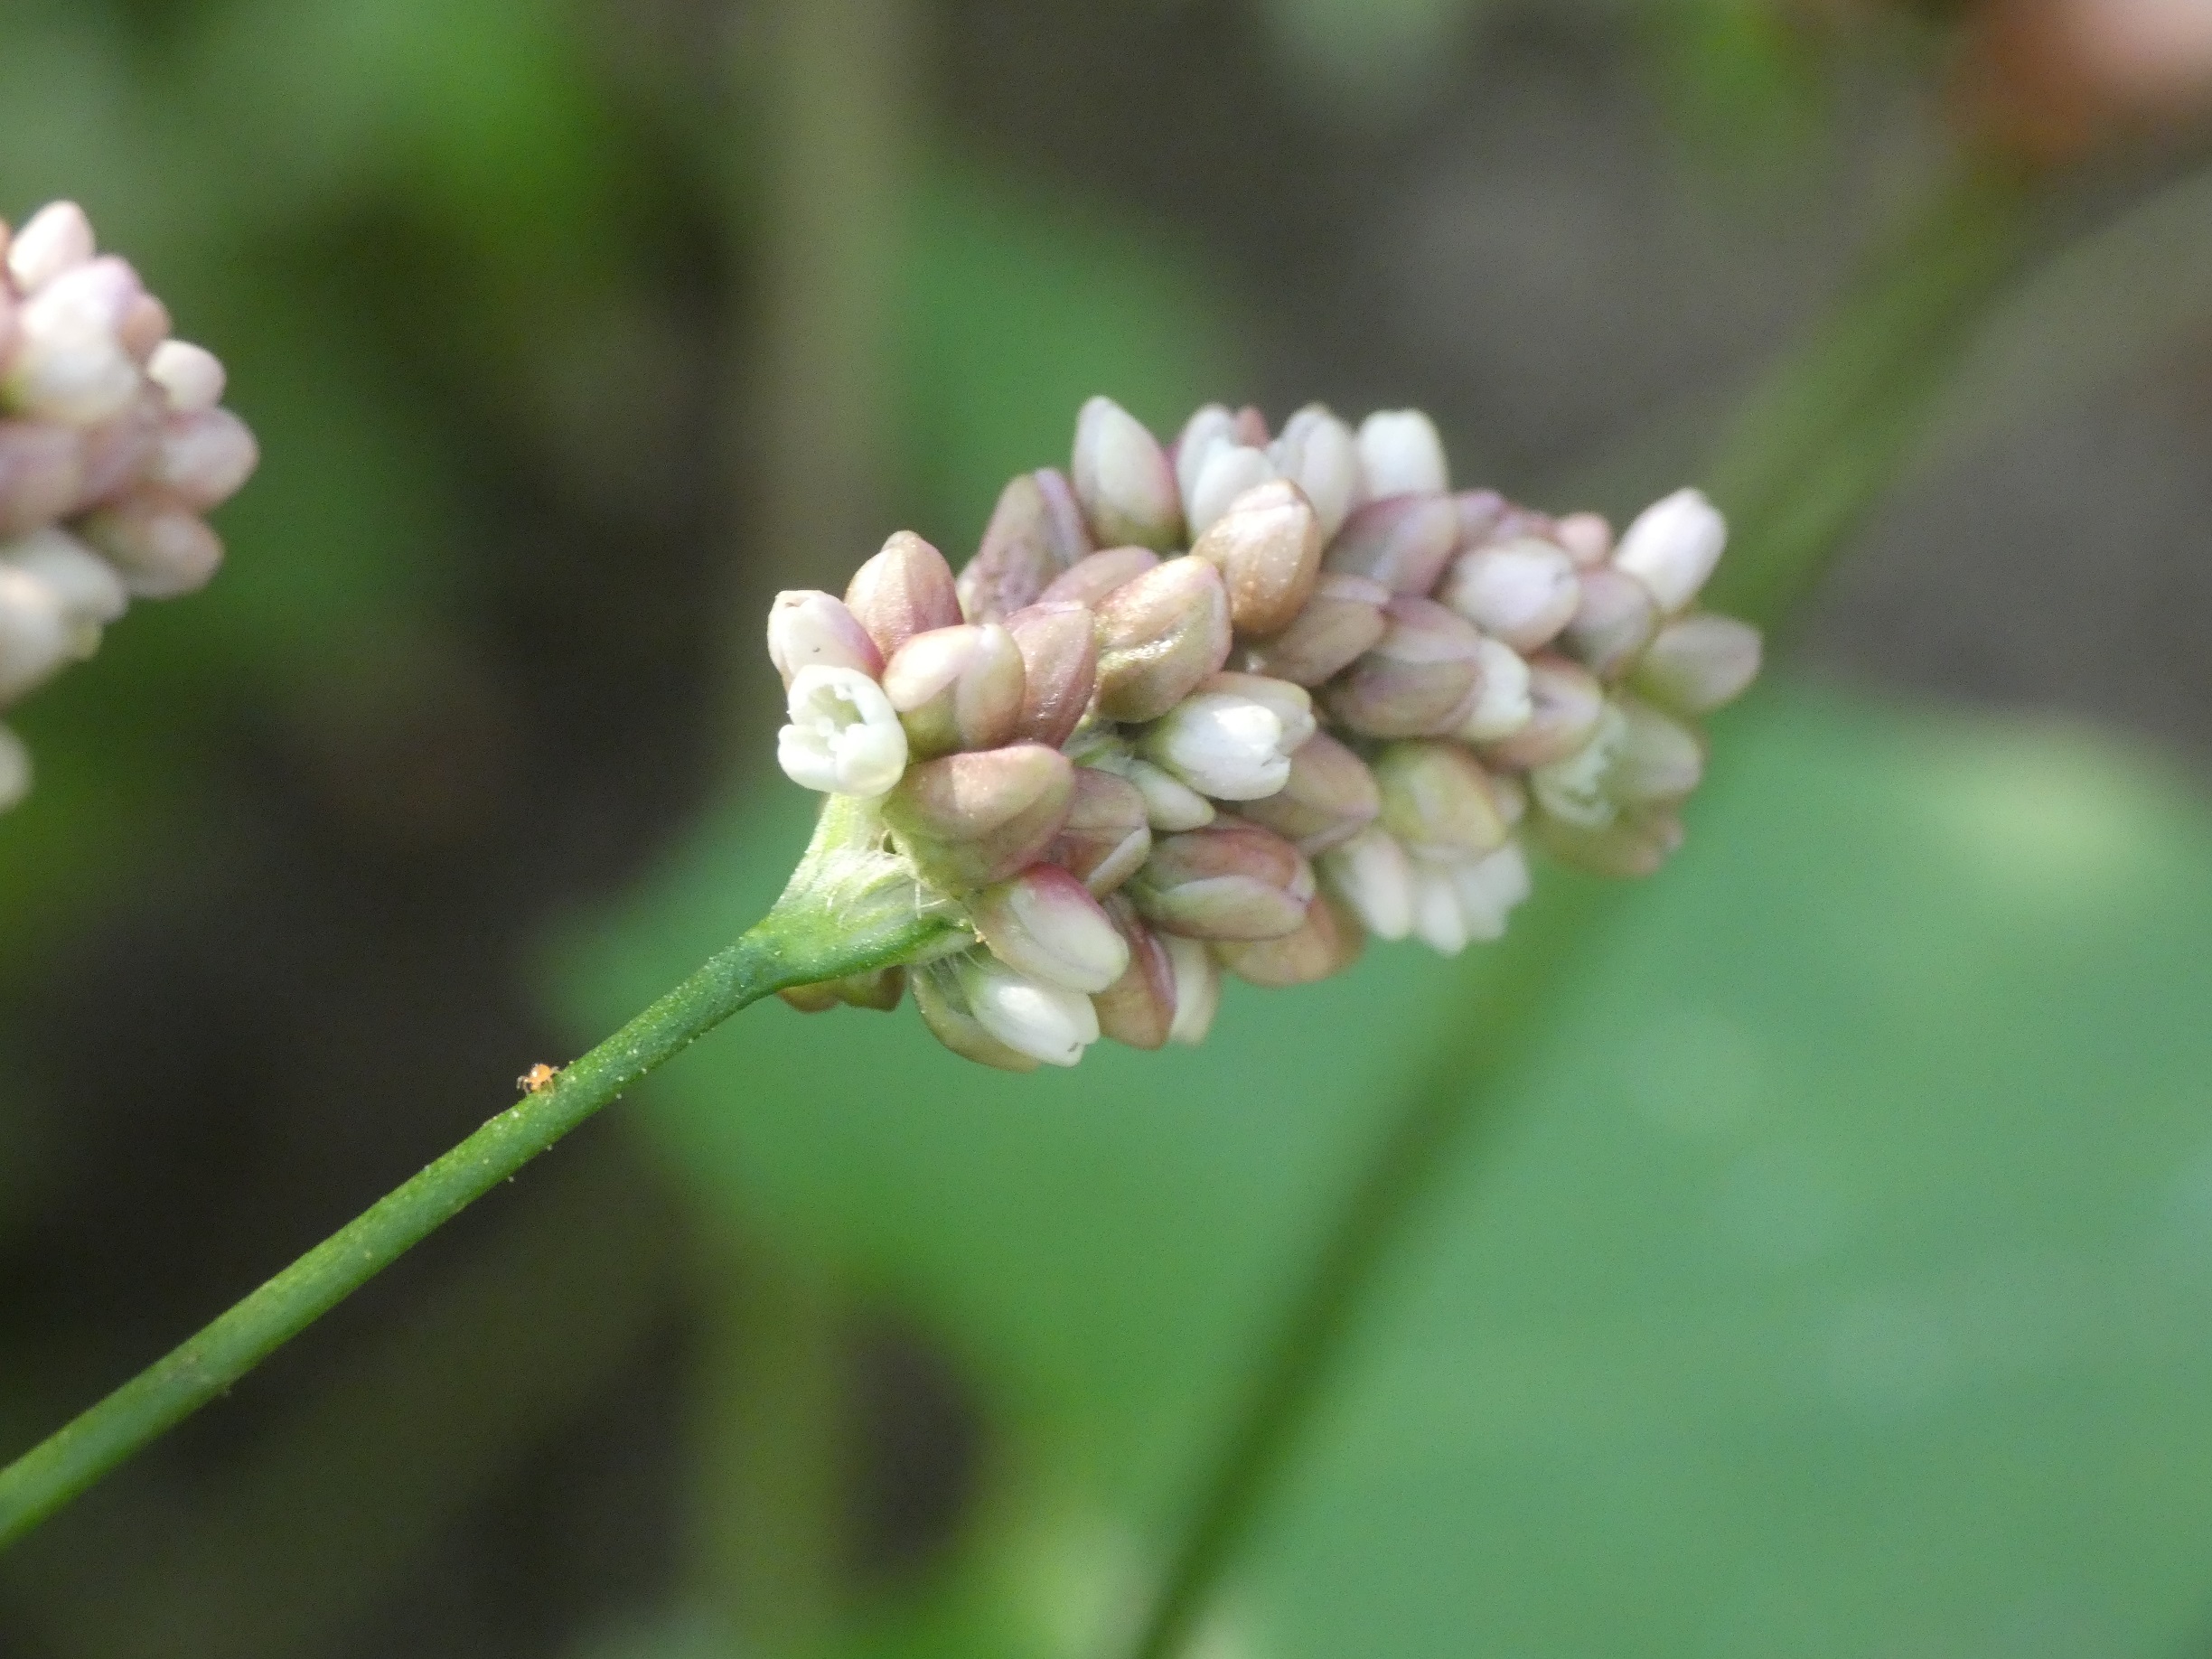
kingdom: Plantae
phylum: Tracheophyta
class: Magnoliopsida
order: Caryophyllales
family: Polygonaceae
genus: Persicaria
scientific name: Persicaria maculosa
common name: Fersken-pileurt
